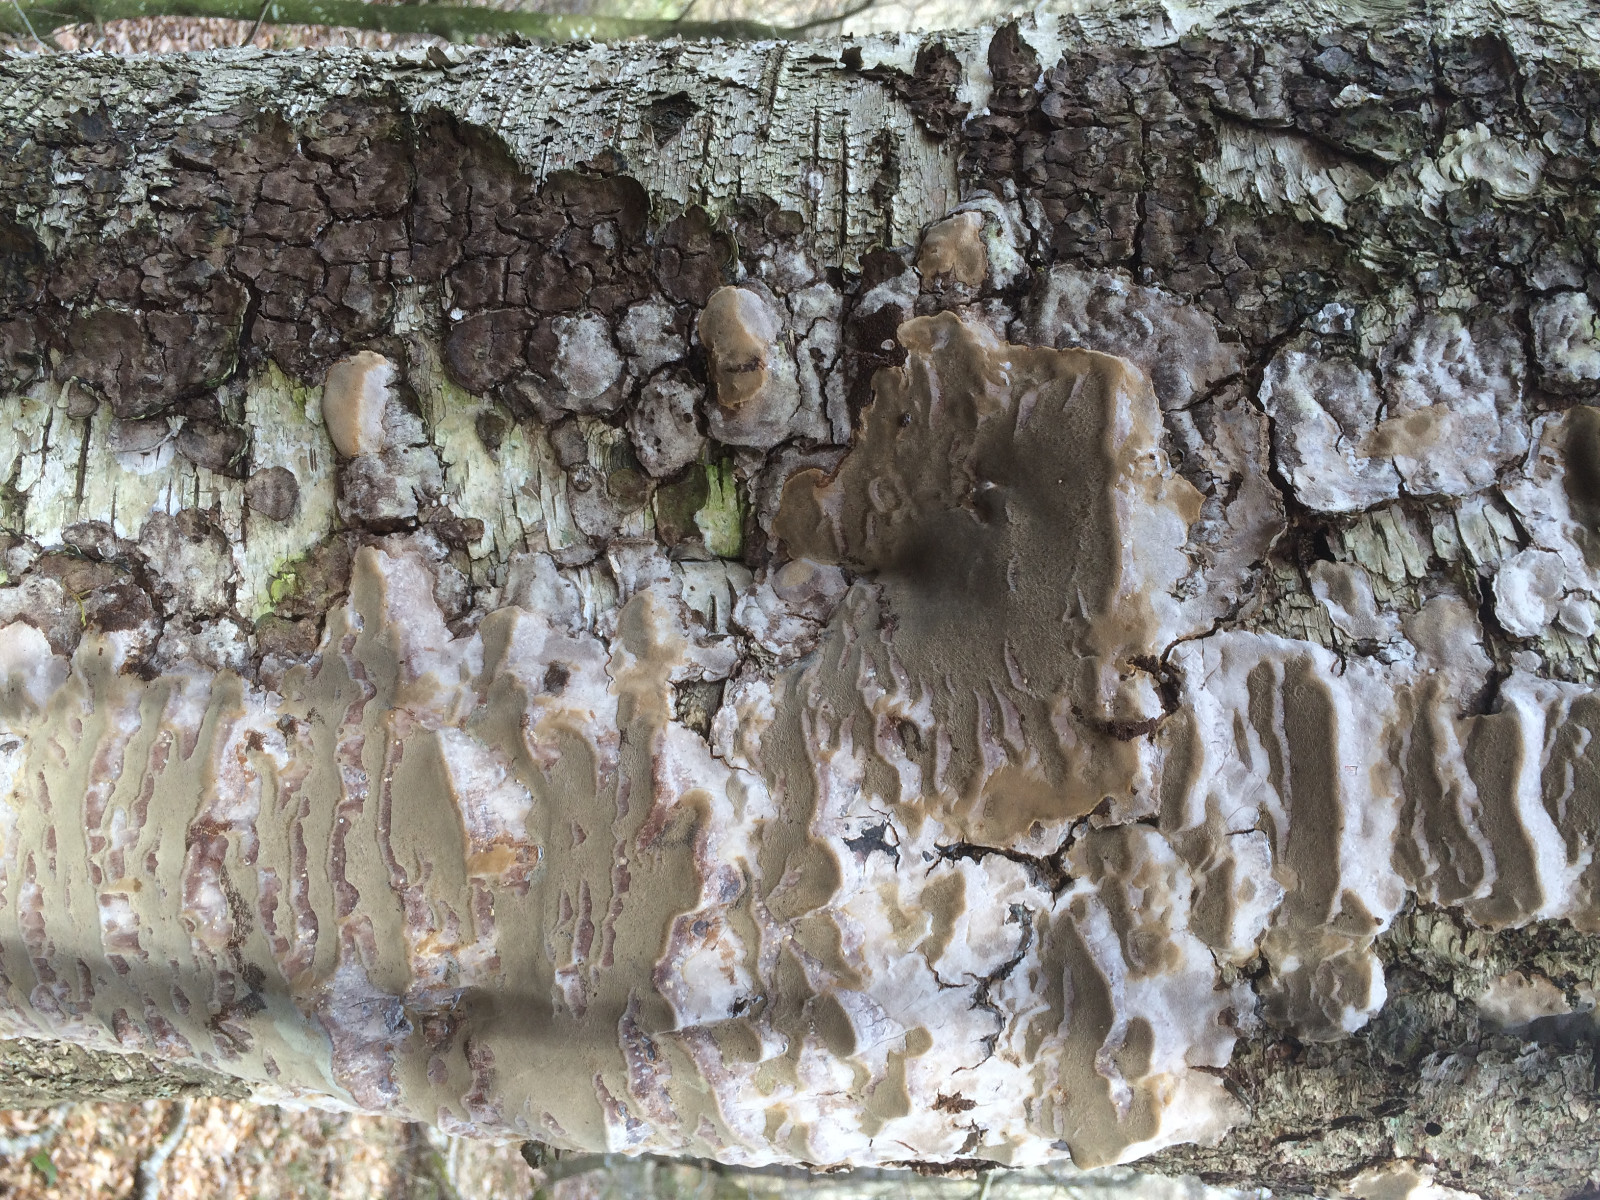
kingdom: Fungi
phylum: Basidiomycota
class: Agaricomycetes
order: Hymenochaetales
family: Hymenochaetaceae
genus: Phellinus
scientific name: Phellinus laevigatus
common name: glat ildporesvamp
